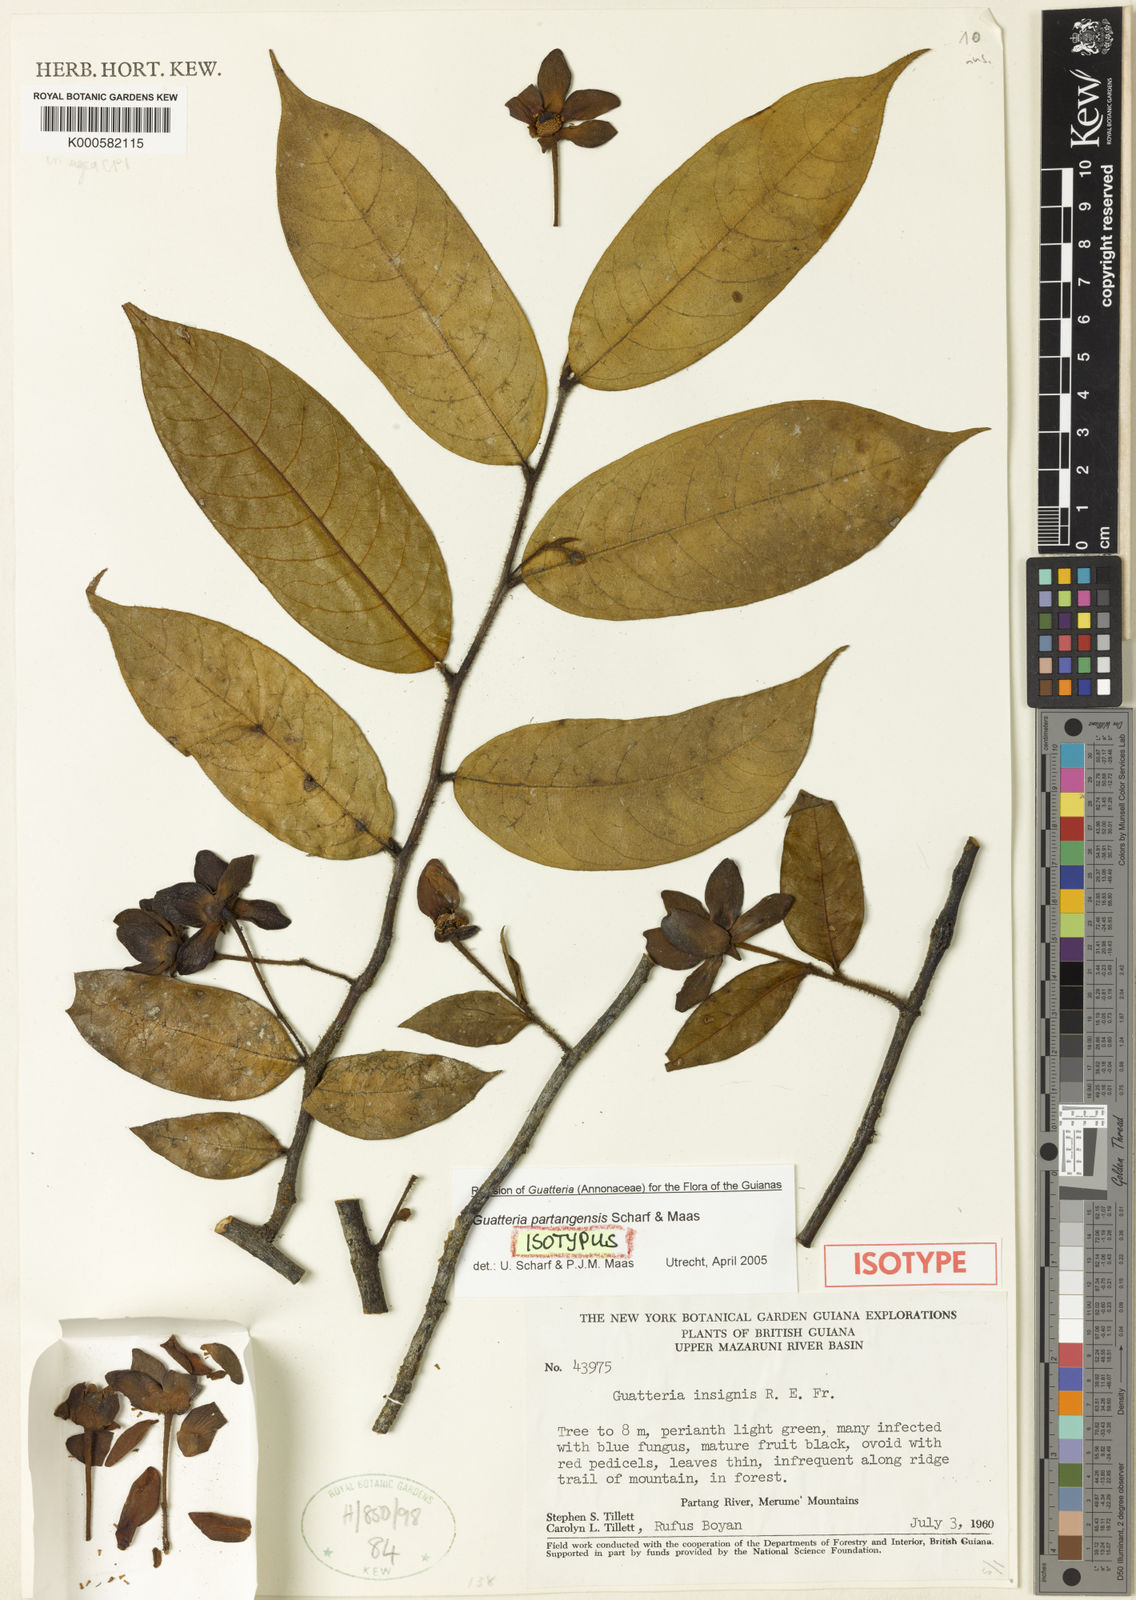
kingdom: Plantae
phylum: Tracheophyta
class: Magnoliopsida
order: Magnoliales
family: Annonaceae
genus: Guatteria
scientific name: Guatteria partangensis
